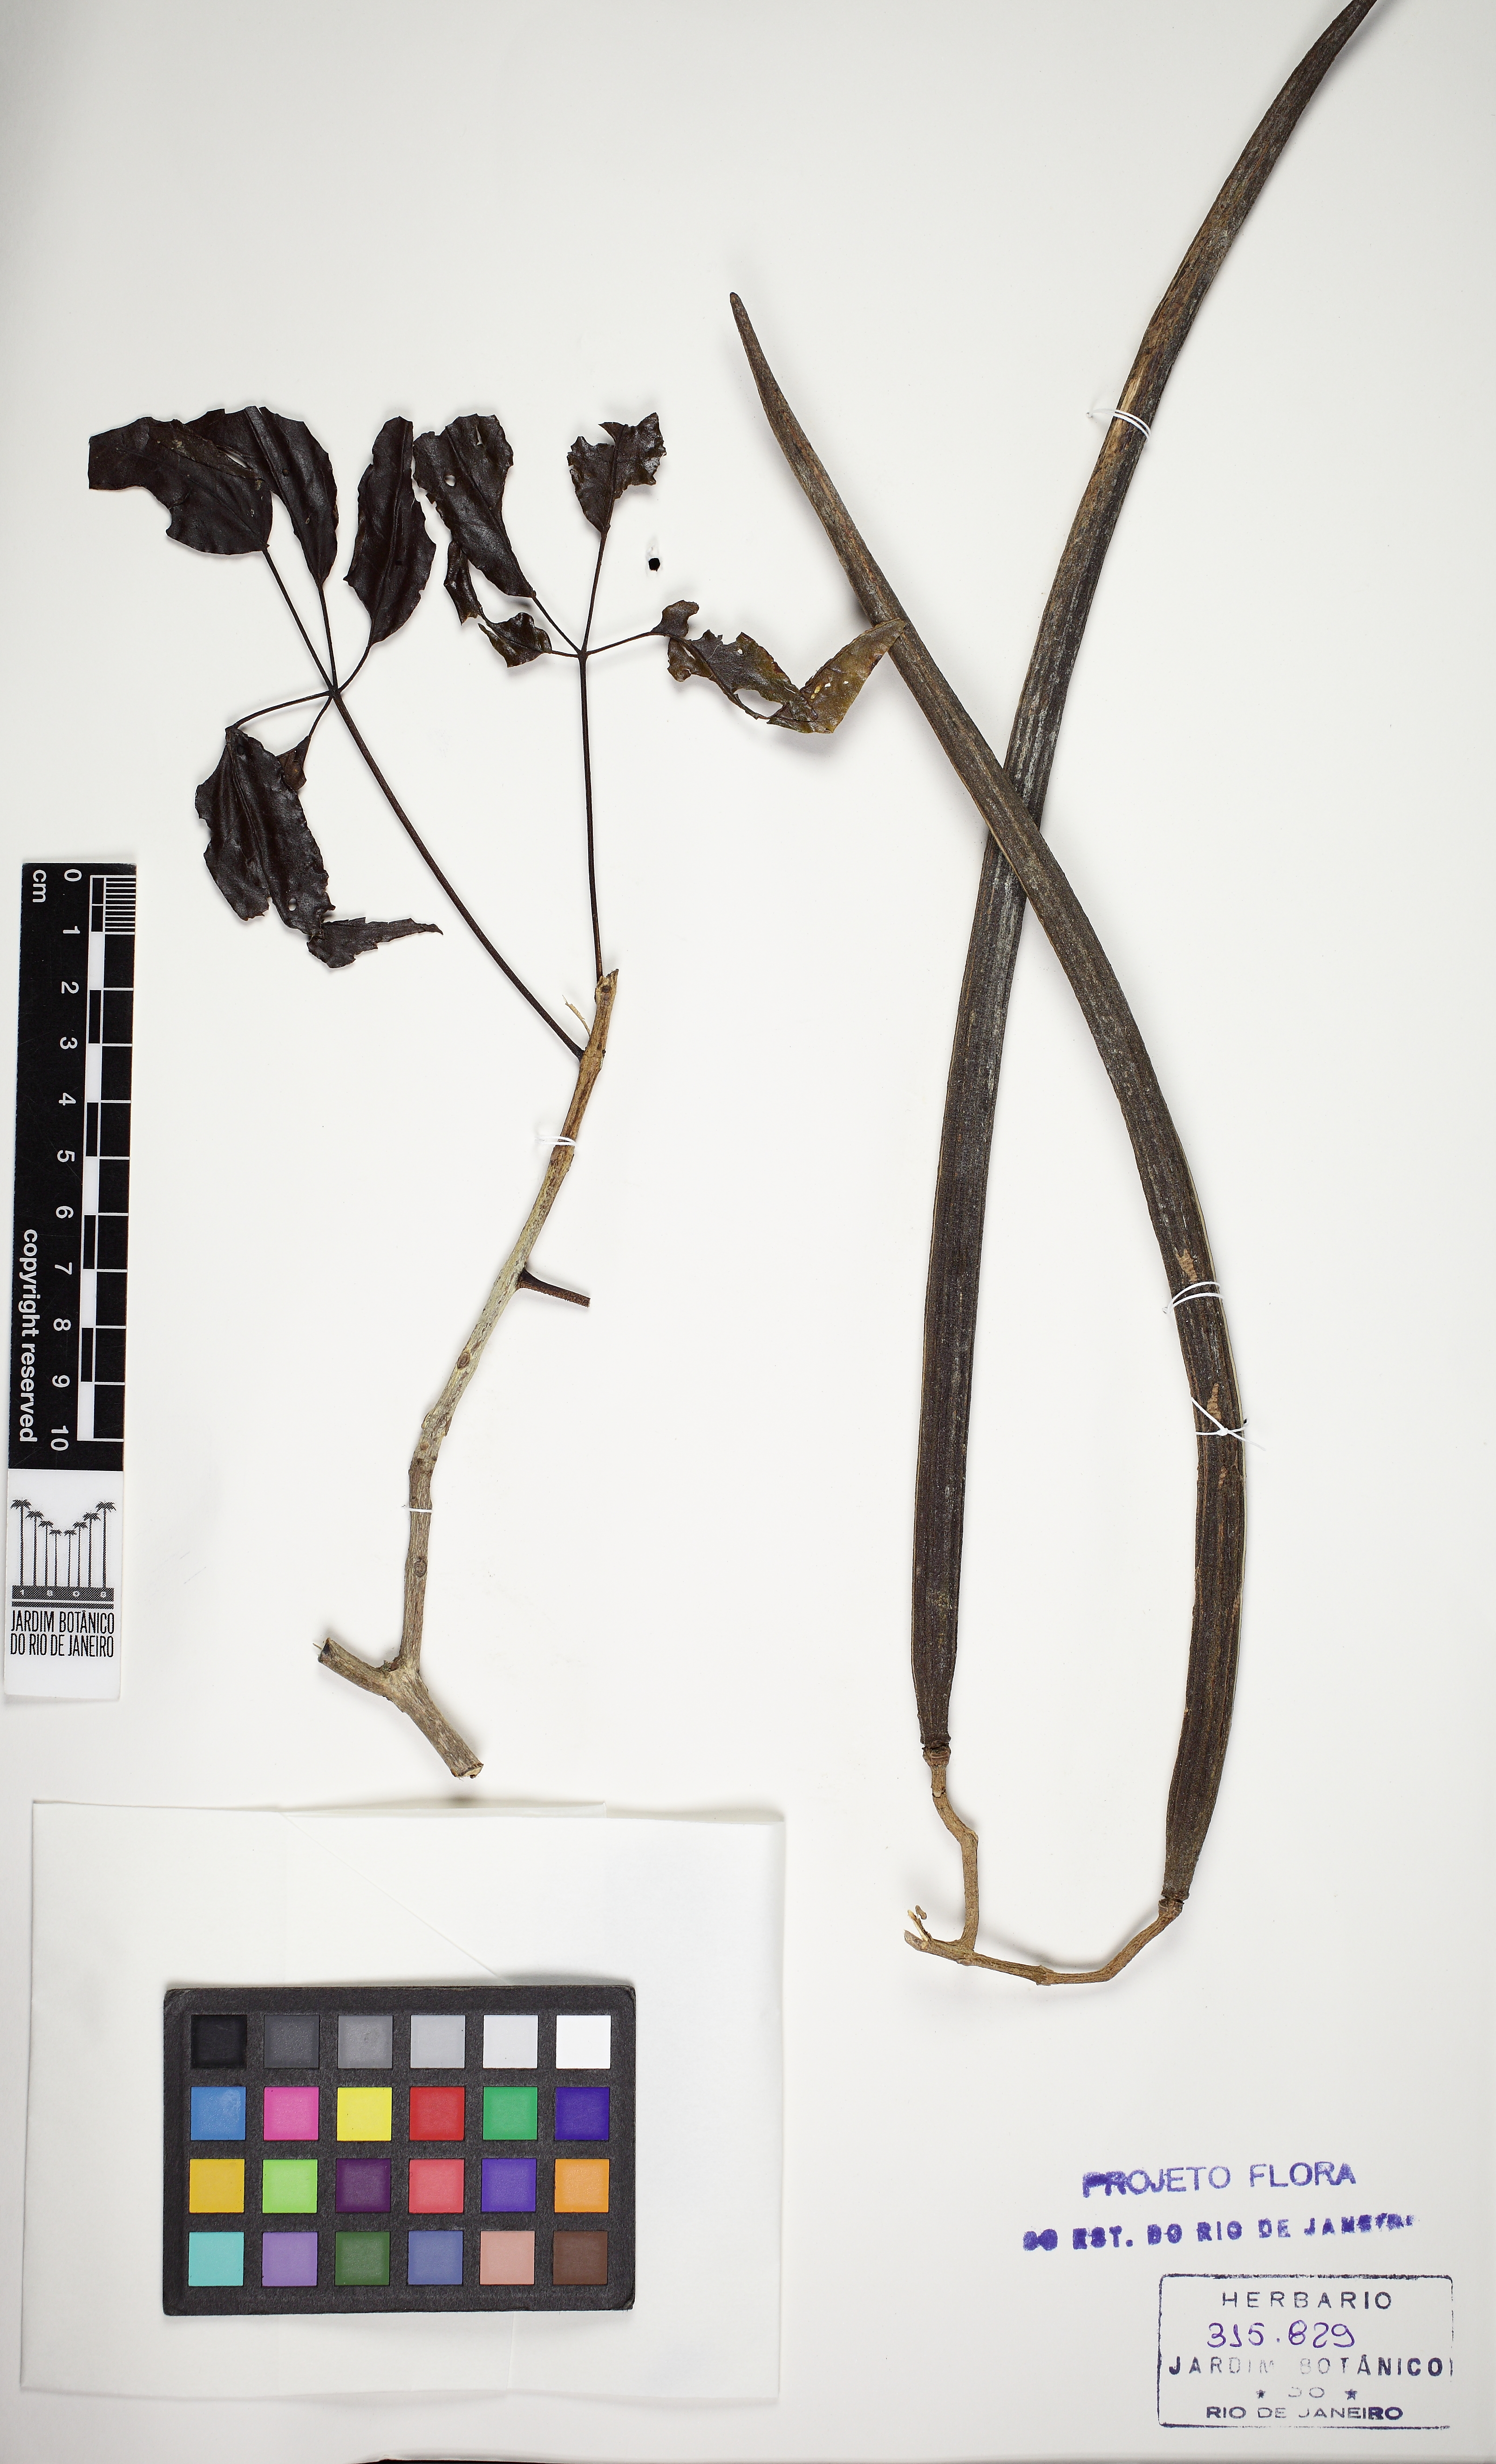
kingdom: Plantae
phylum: Tracheophyta
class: Magnoliopsida
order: Lamiales
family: Bignoniaceae
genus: Sparattosperma
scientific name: Sparattosperma leucanthum
